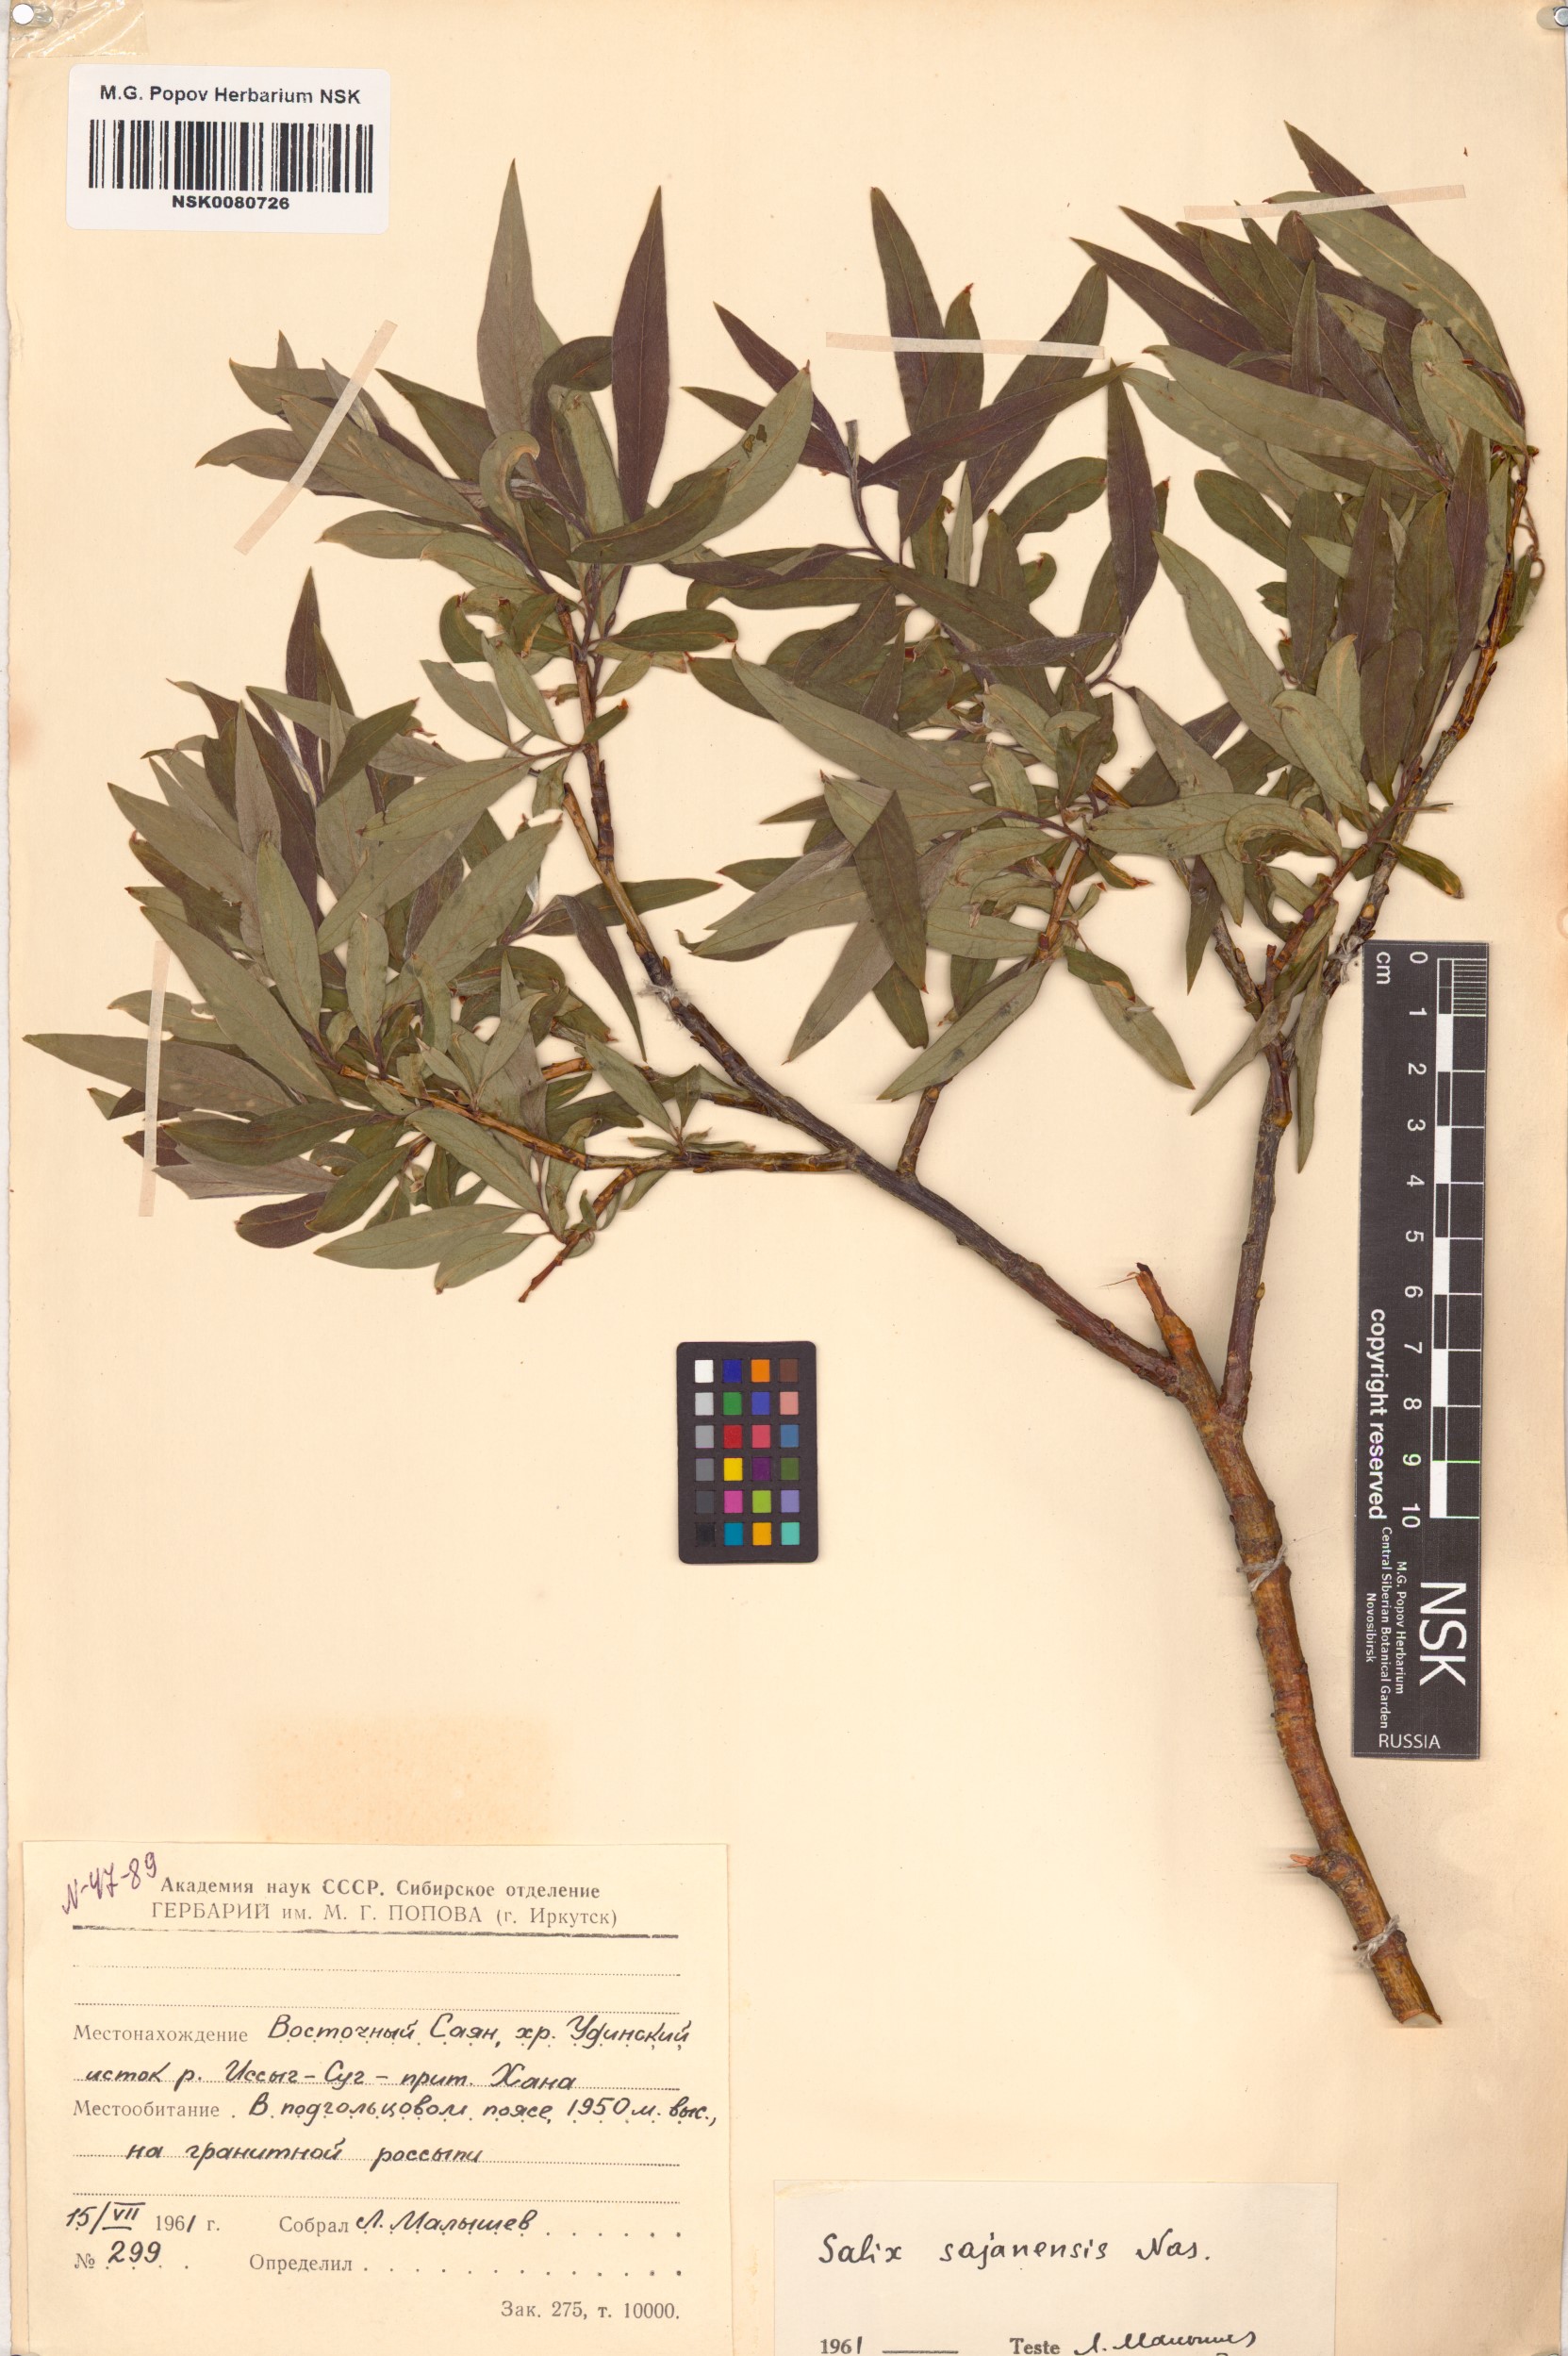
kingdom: Plantae
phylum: Tracheophyta
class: Magnoliopsida
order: Malpighiales
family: Salicaceae
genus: Salix
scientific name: Salix sajanensis
